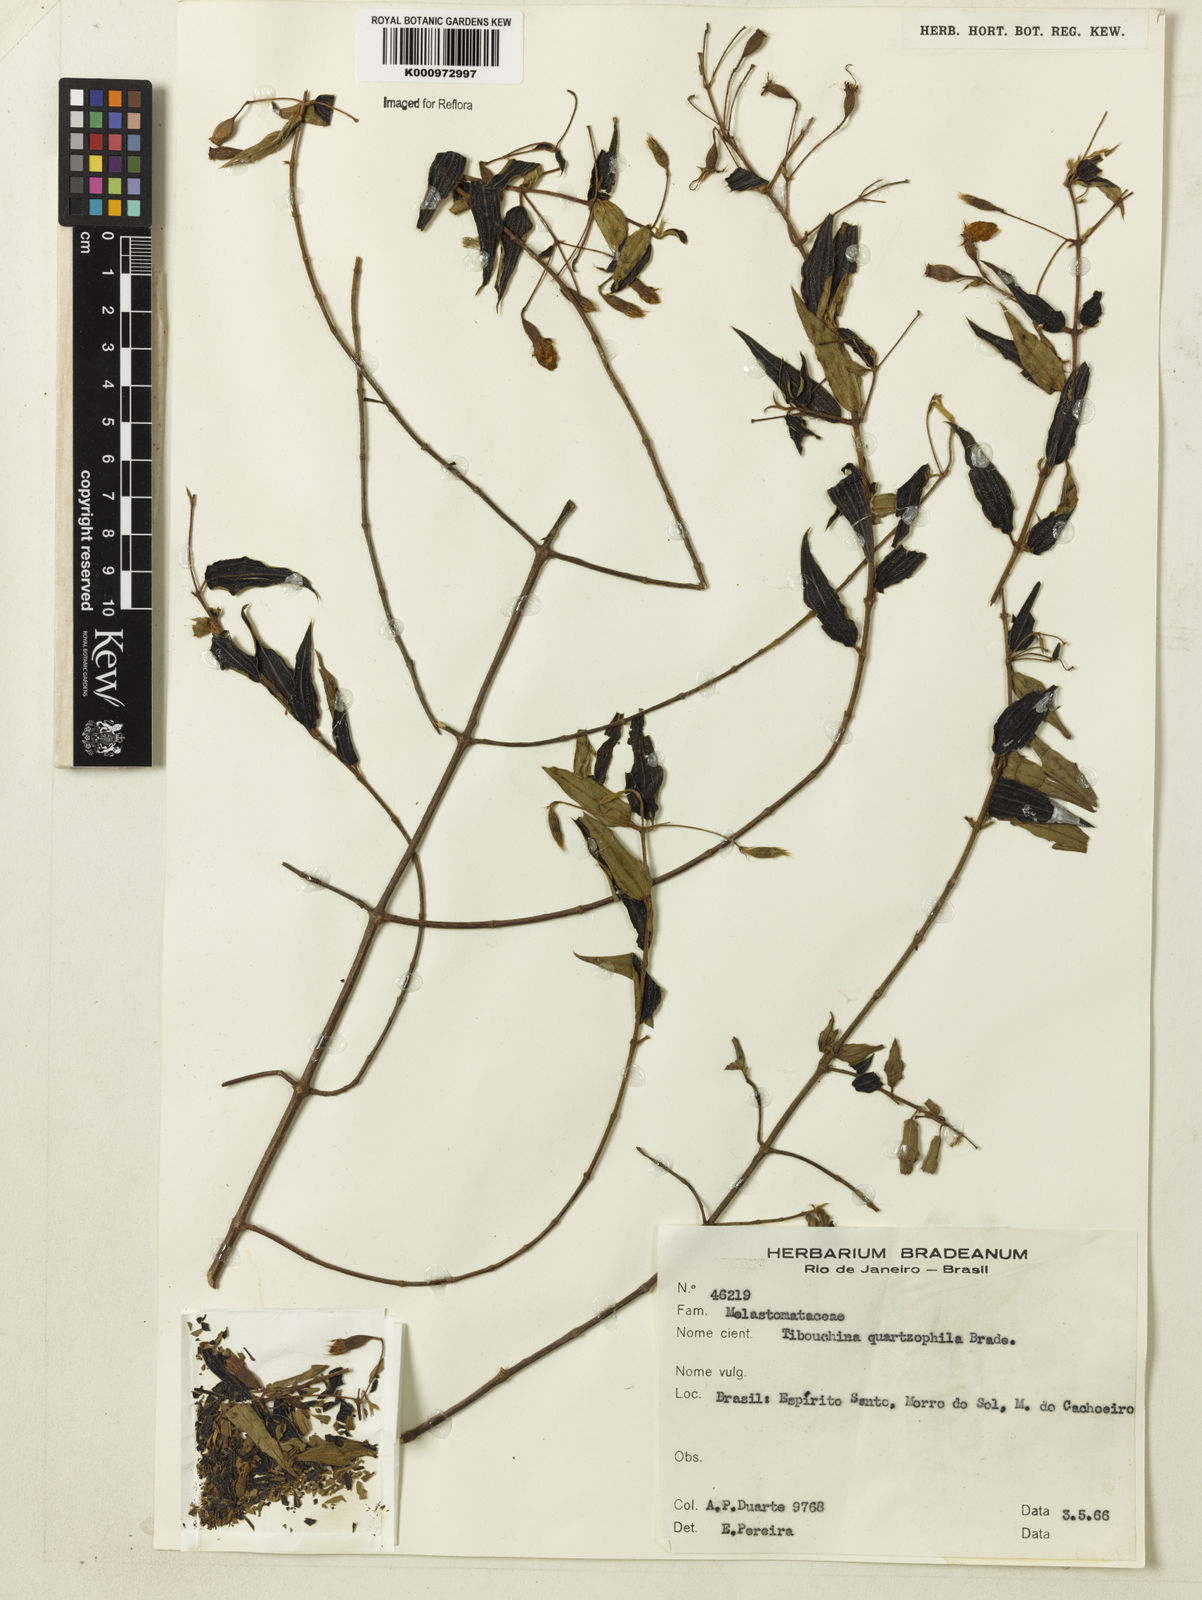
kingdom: Plantae
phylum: Tracheophyta
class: Magnoliopsida
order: Myrtales
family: Melastomataceae
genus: Pleroma
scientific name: Pleroma quartzophilum
